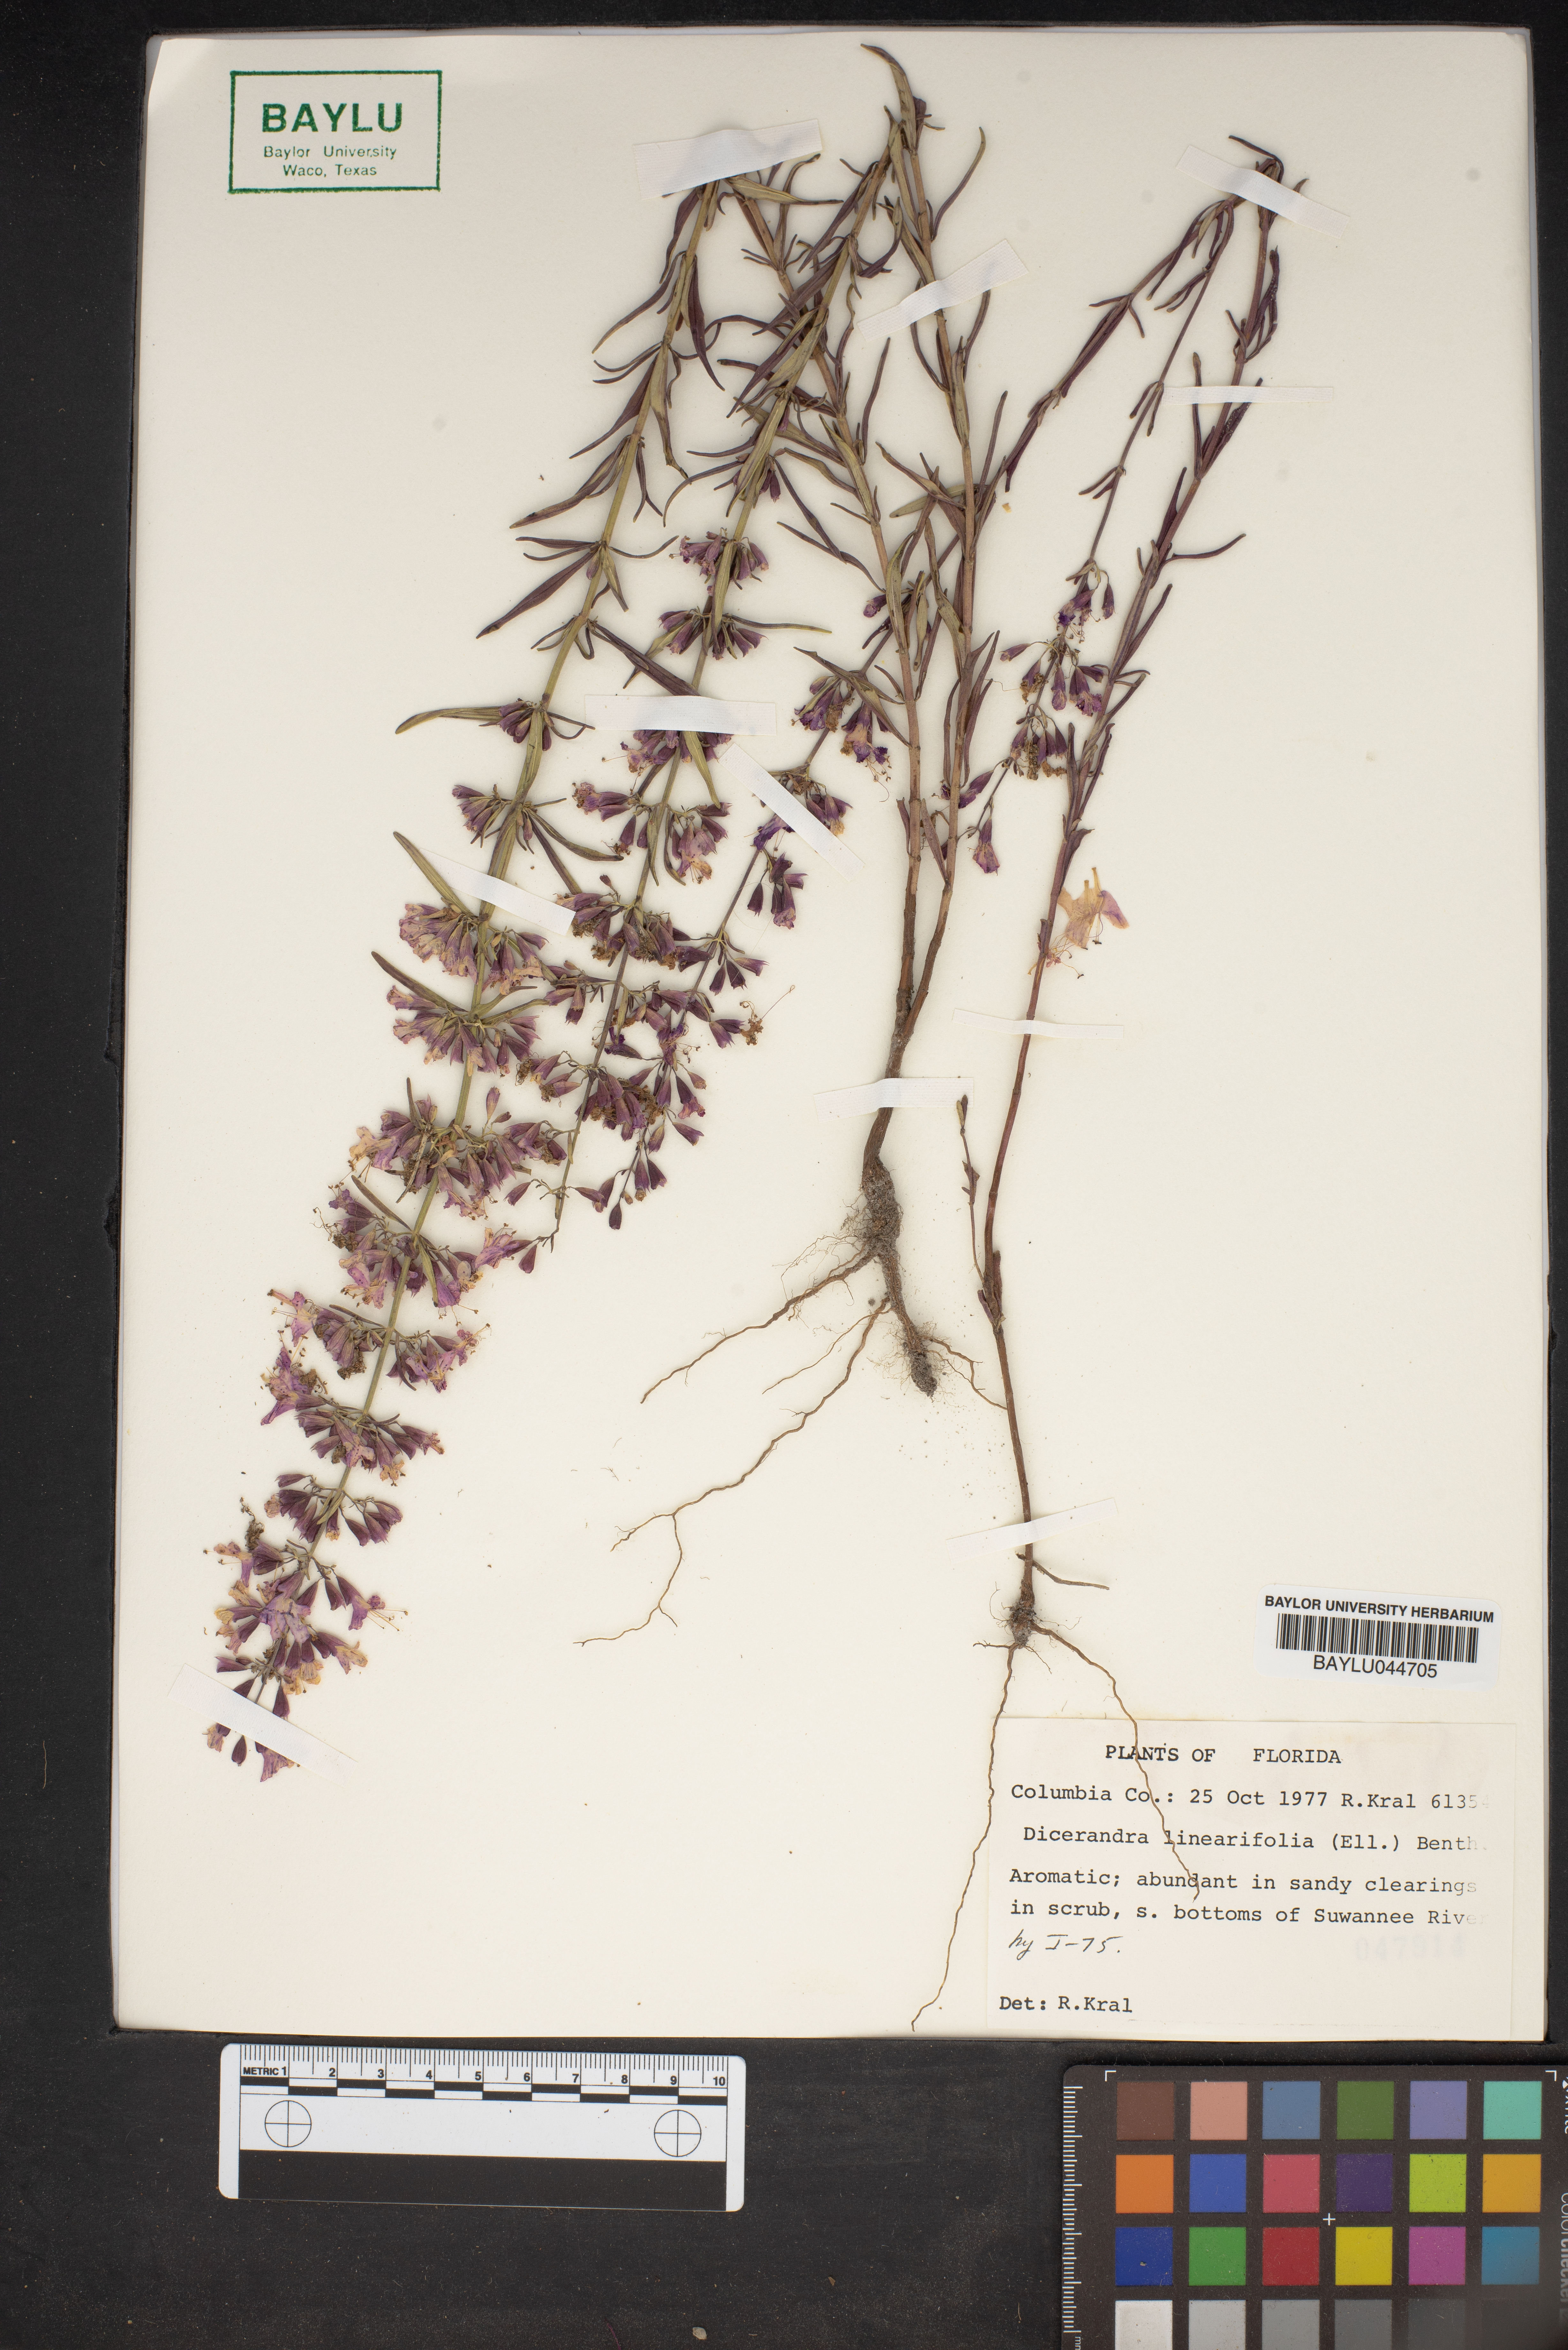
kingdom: Plantae
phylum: Tracheophyta
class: Magnoliopsida
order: Lamiales
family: Lamiaceae
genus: Dicerandra
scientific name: Dicerandra linearifolia
